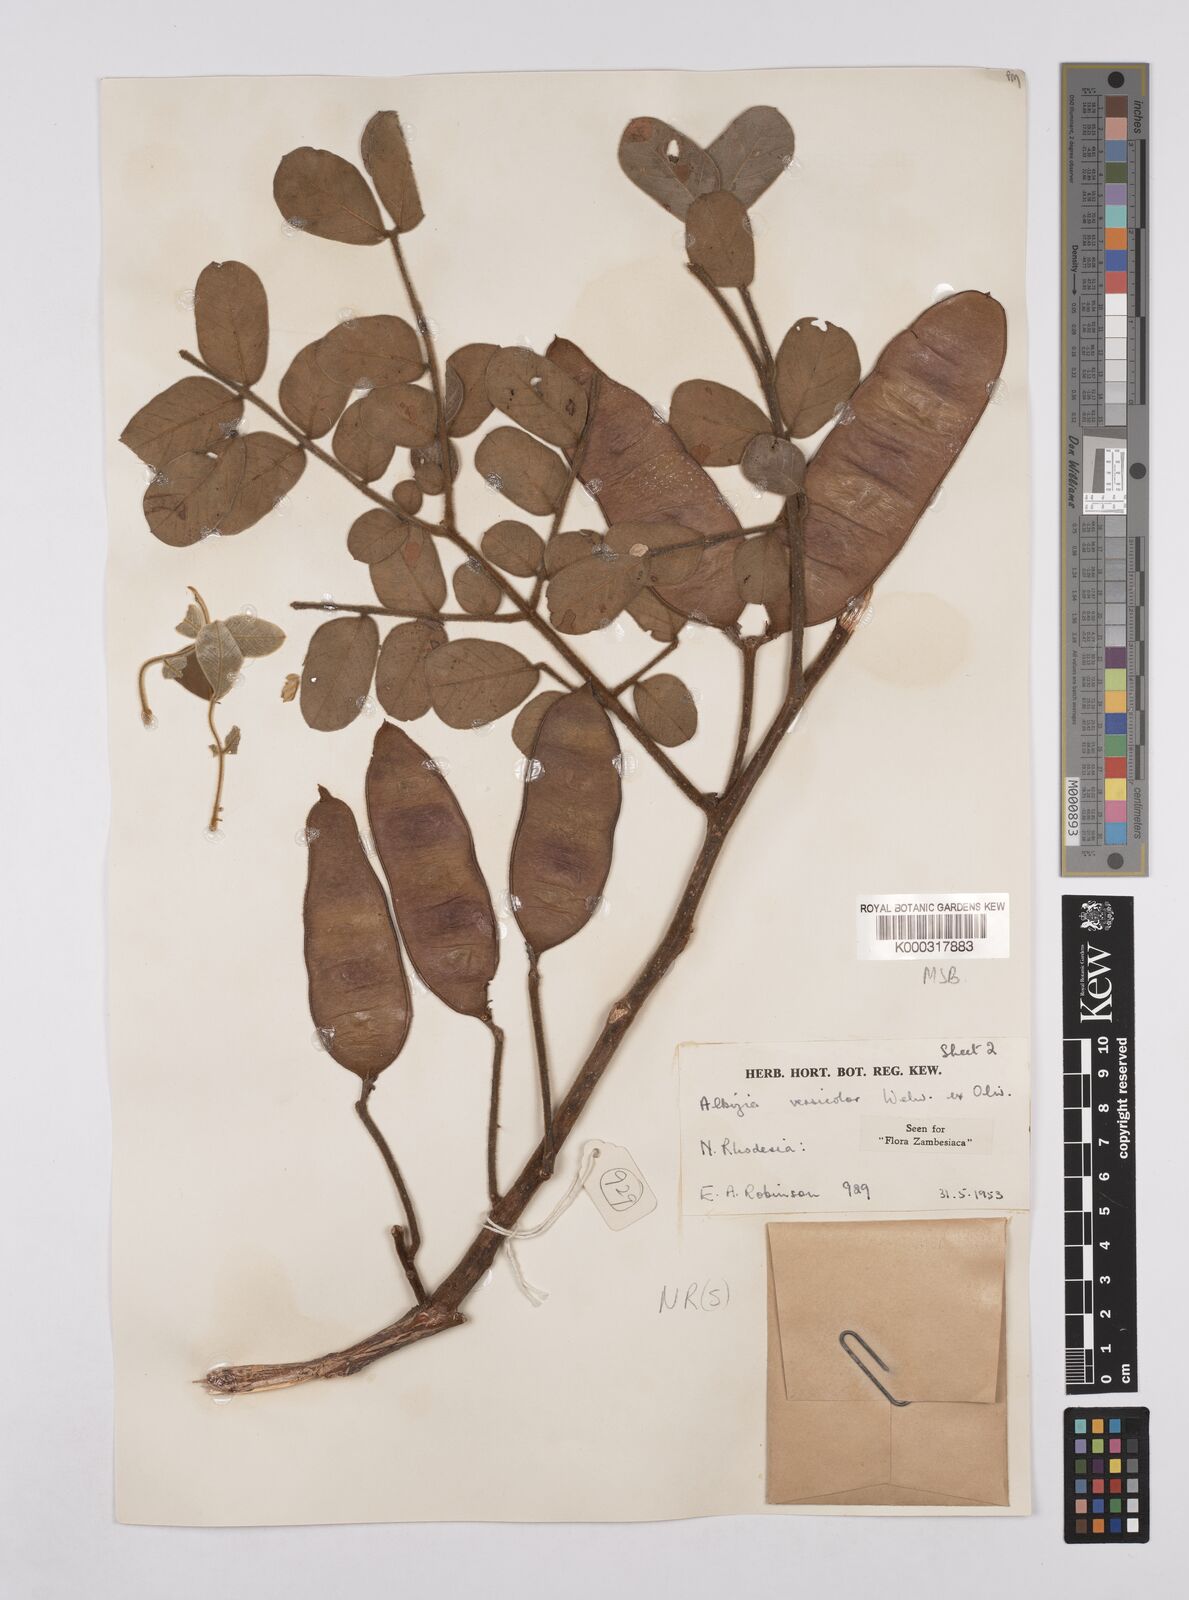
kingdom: Plantae
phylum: Tracheophyta
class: Magnoliopsida
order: Fabales
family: Fabaceae
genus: Albizia
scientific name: Albizia versicolor
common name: Poisonpod
